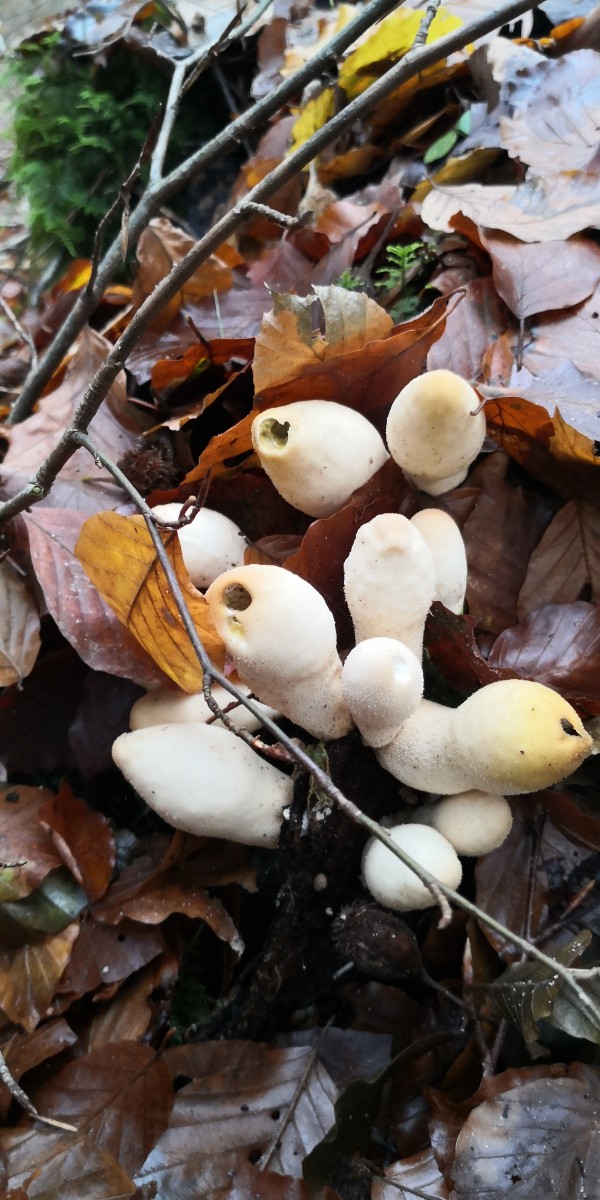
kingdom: Fungi
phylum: Basidiomycota
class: Agaricomycetes
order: Agaricales
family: Lycoperdaceae
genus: Apioperdon
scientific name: Apioperdon pyriforme
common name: pære-støvbold
